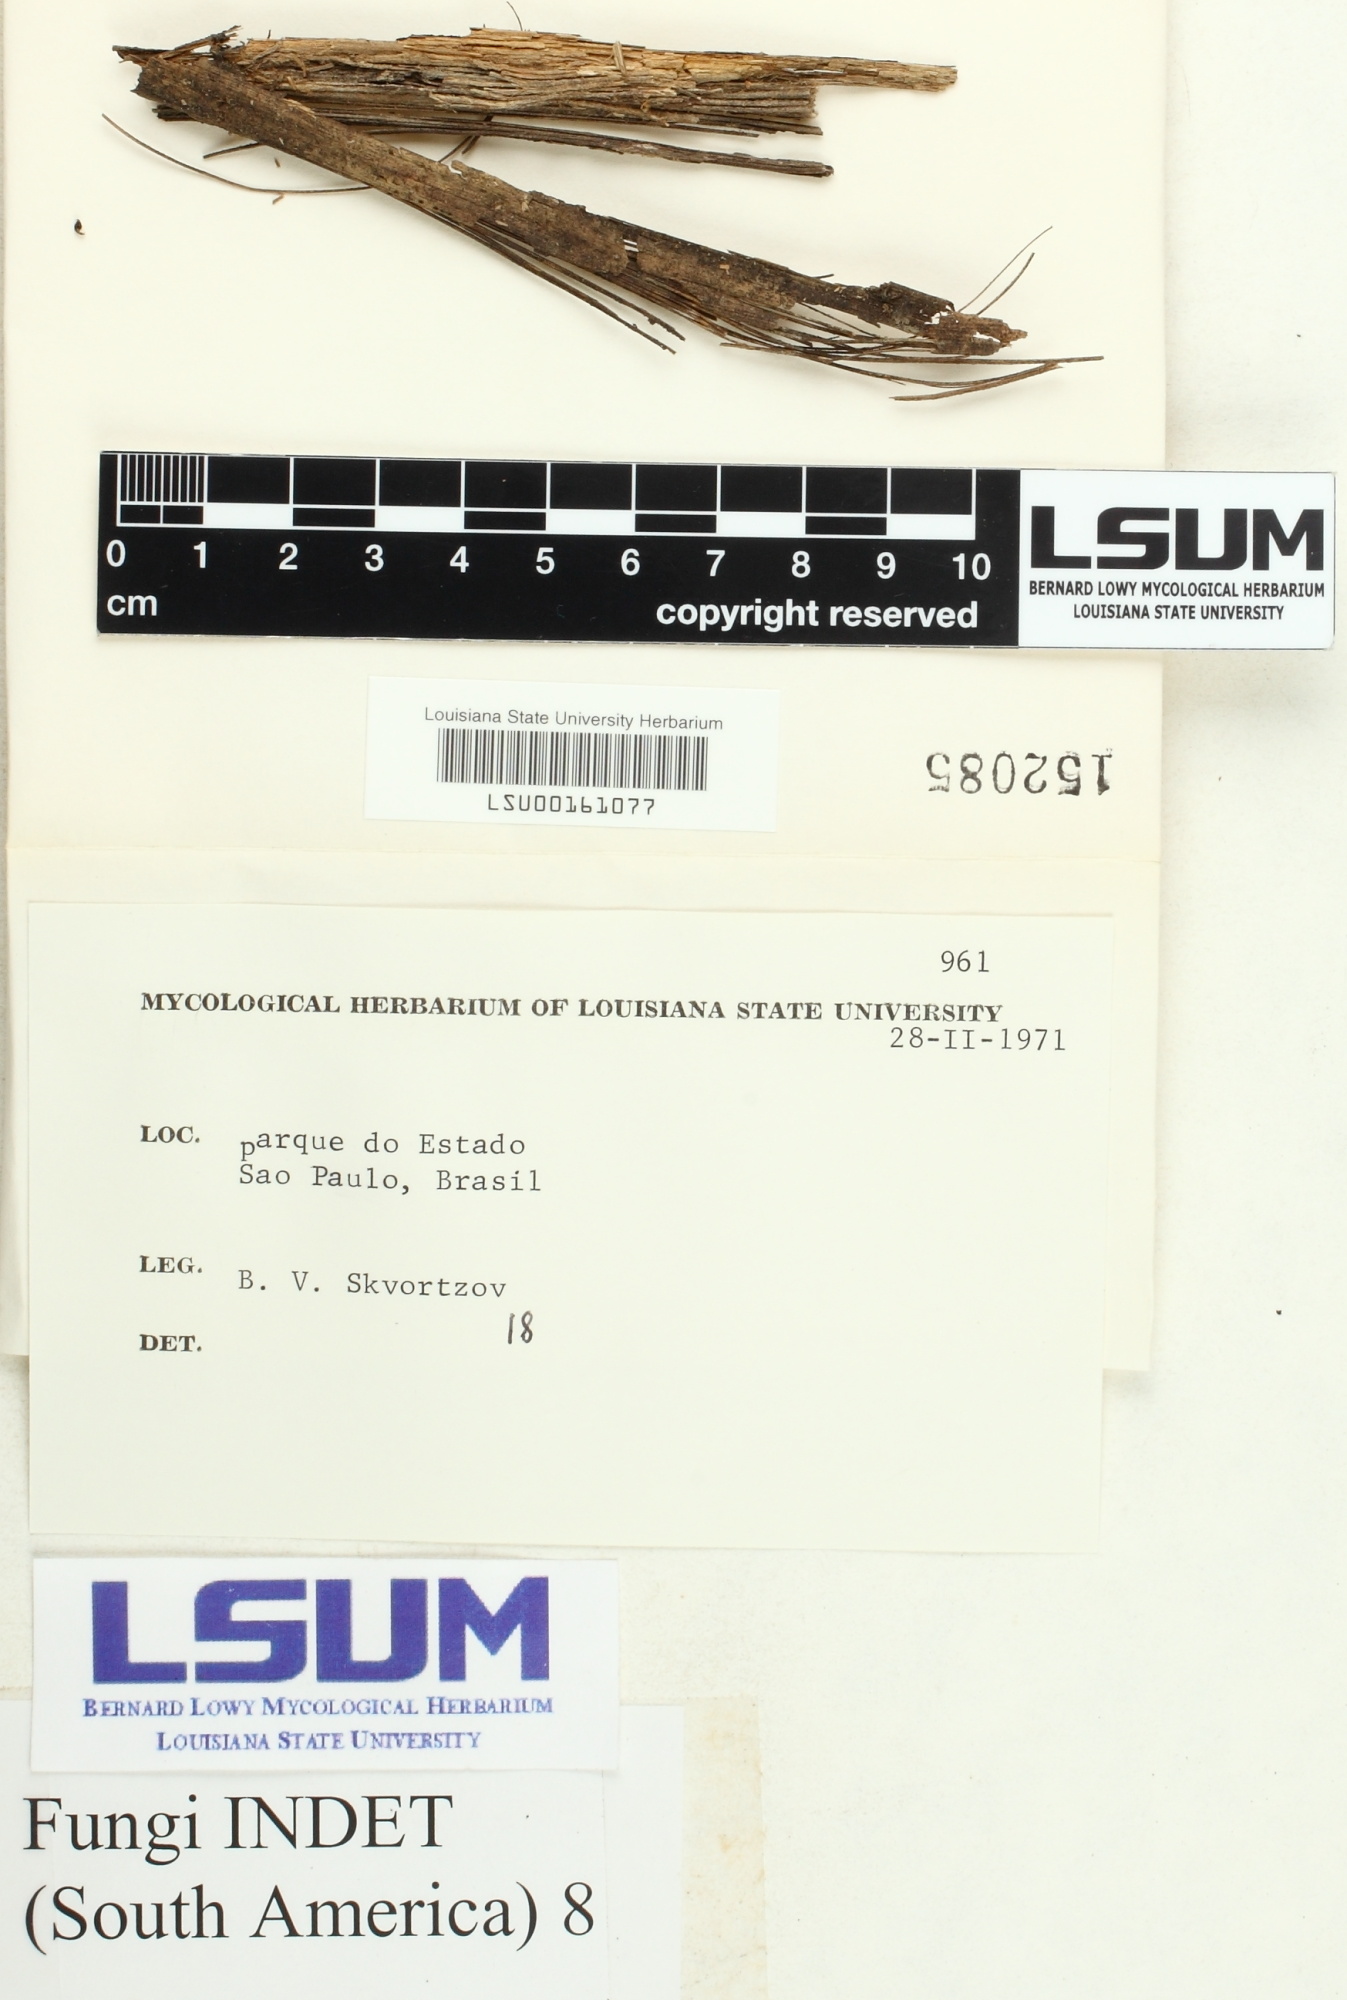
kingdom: Fungi
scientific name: Fungi
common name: Fungi
